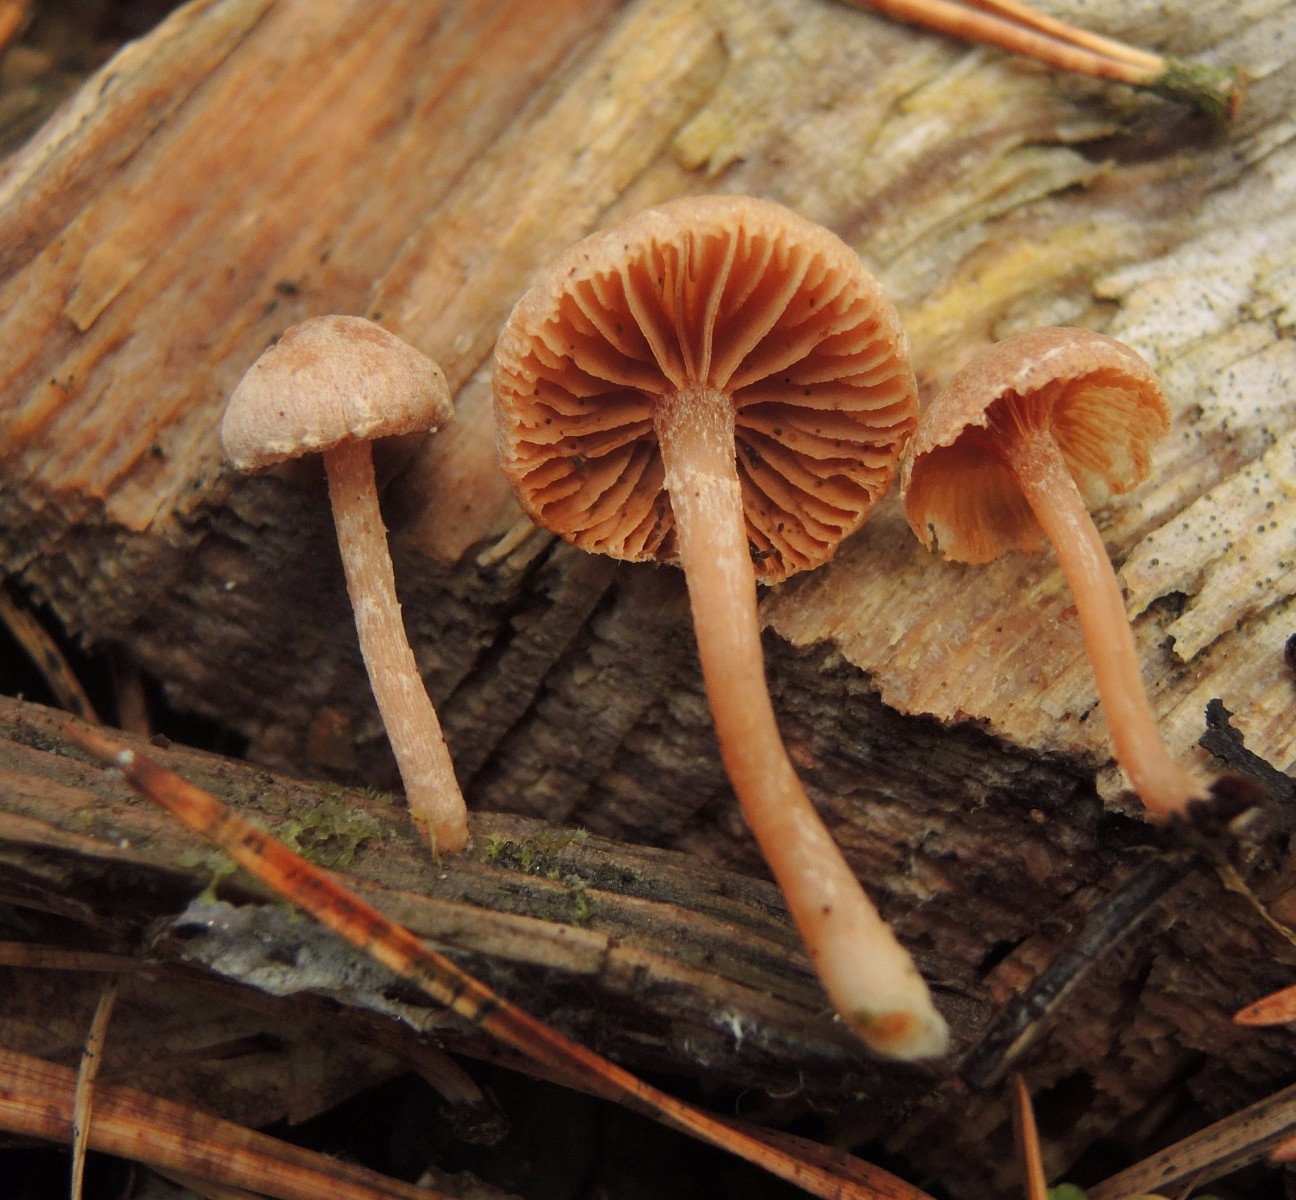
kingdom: Fungi
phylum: Basidiomycota
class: Agaricomycetes
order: Agaricales
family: Tubariaceae
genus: Tubaria
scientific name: Tubaria conspersa
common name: bleg fnughat
